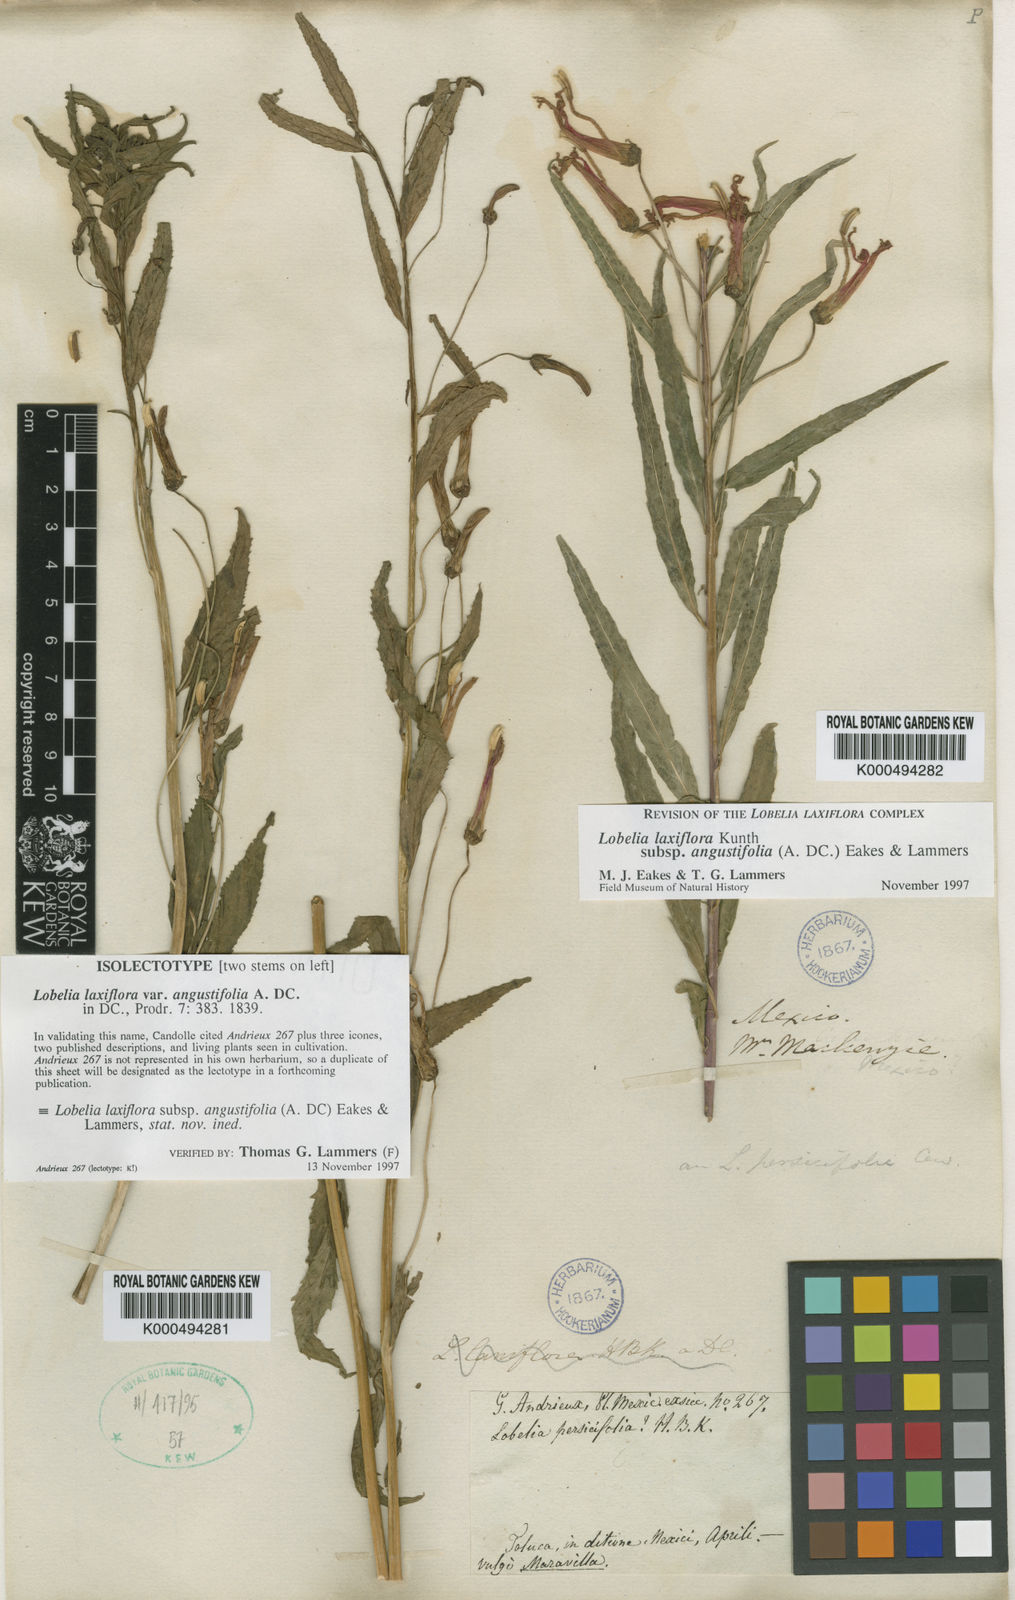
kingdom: Plantae
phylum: Tracheophyta
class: Magnoliopsida
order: Asterales
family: Campanulaceae
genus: Lobelia
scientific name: Lobelia laxiflora
